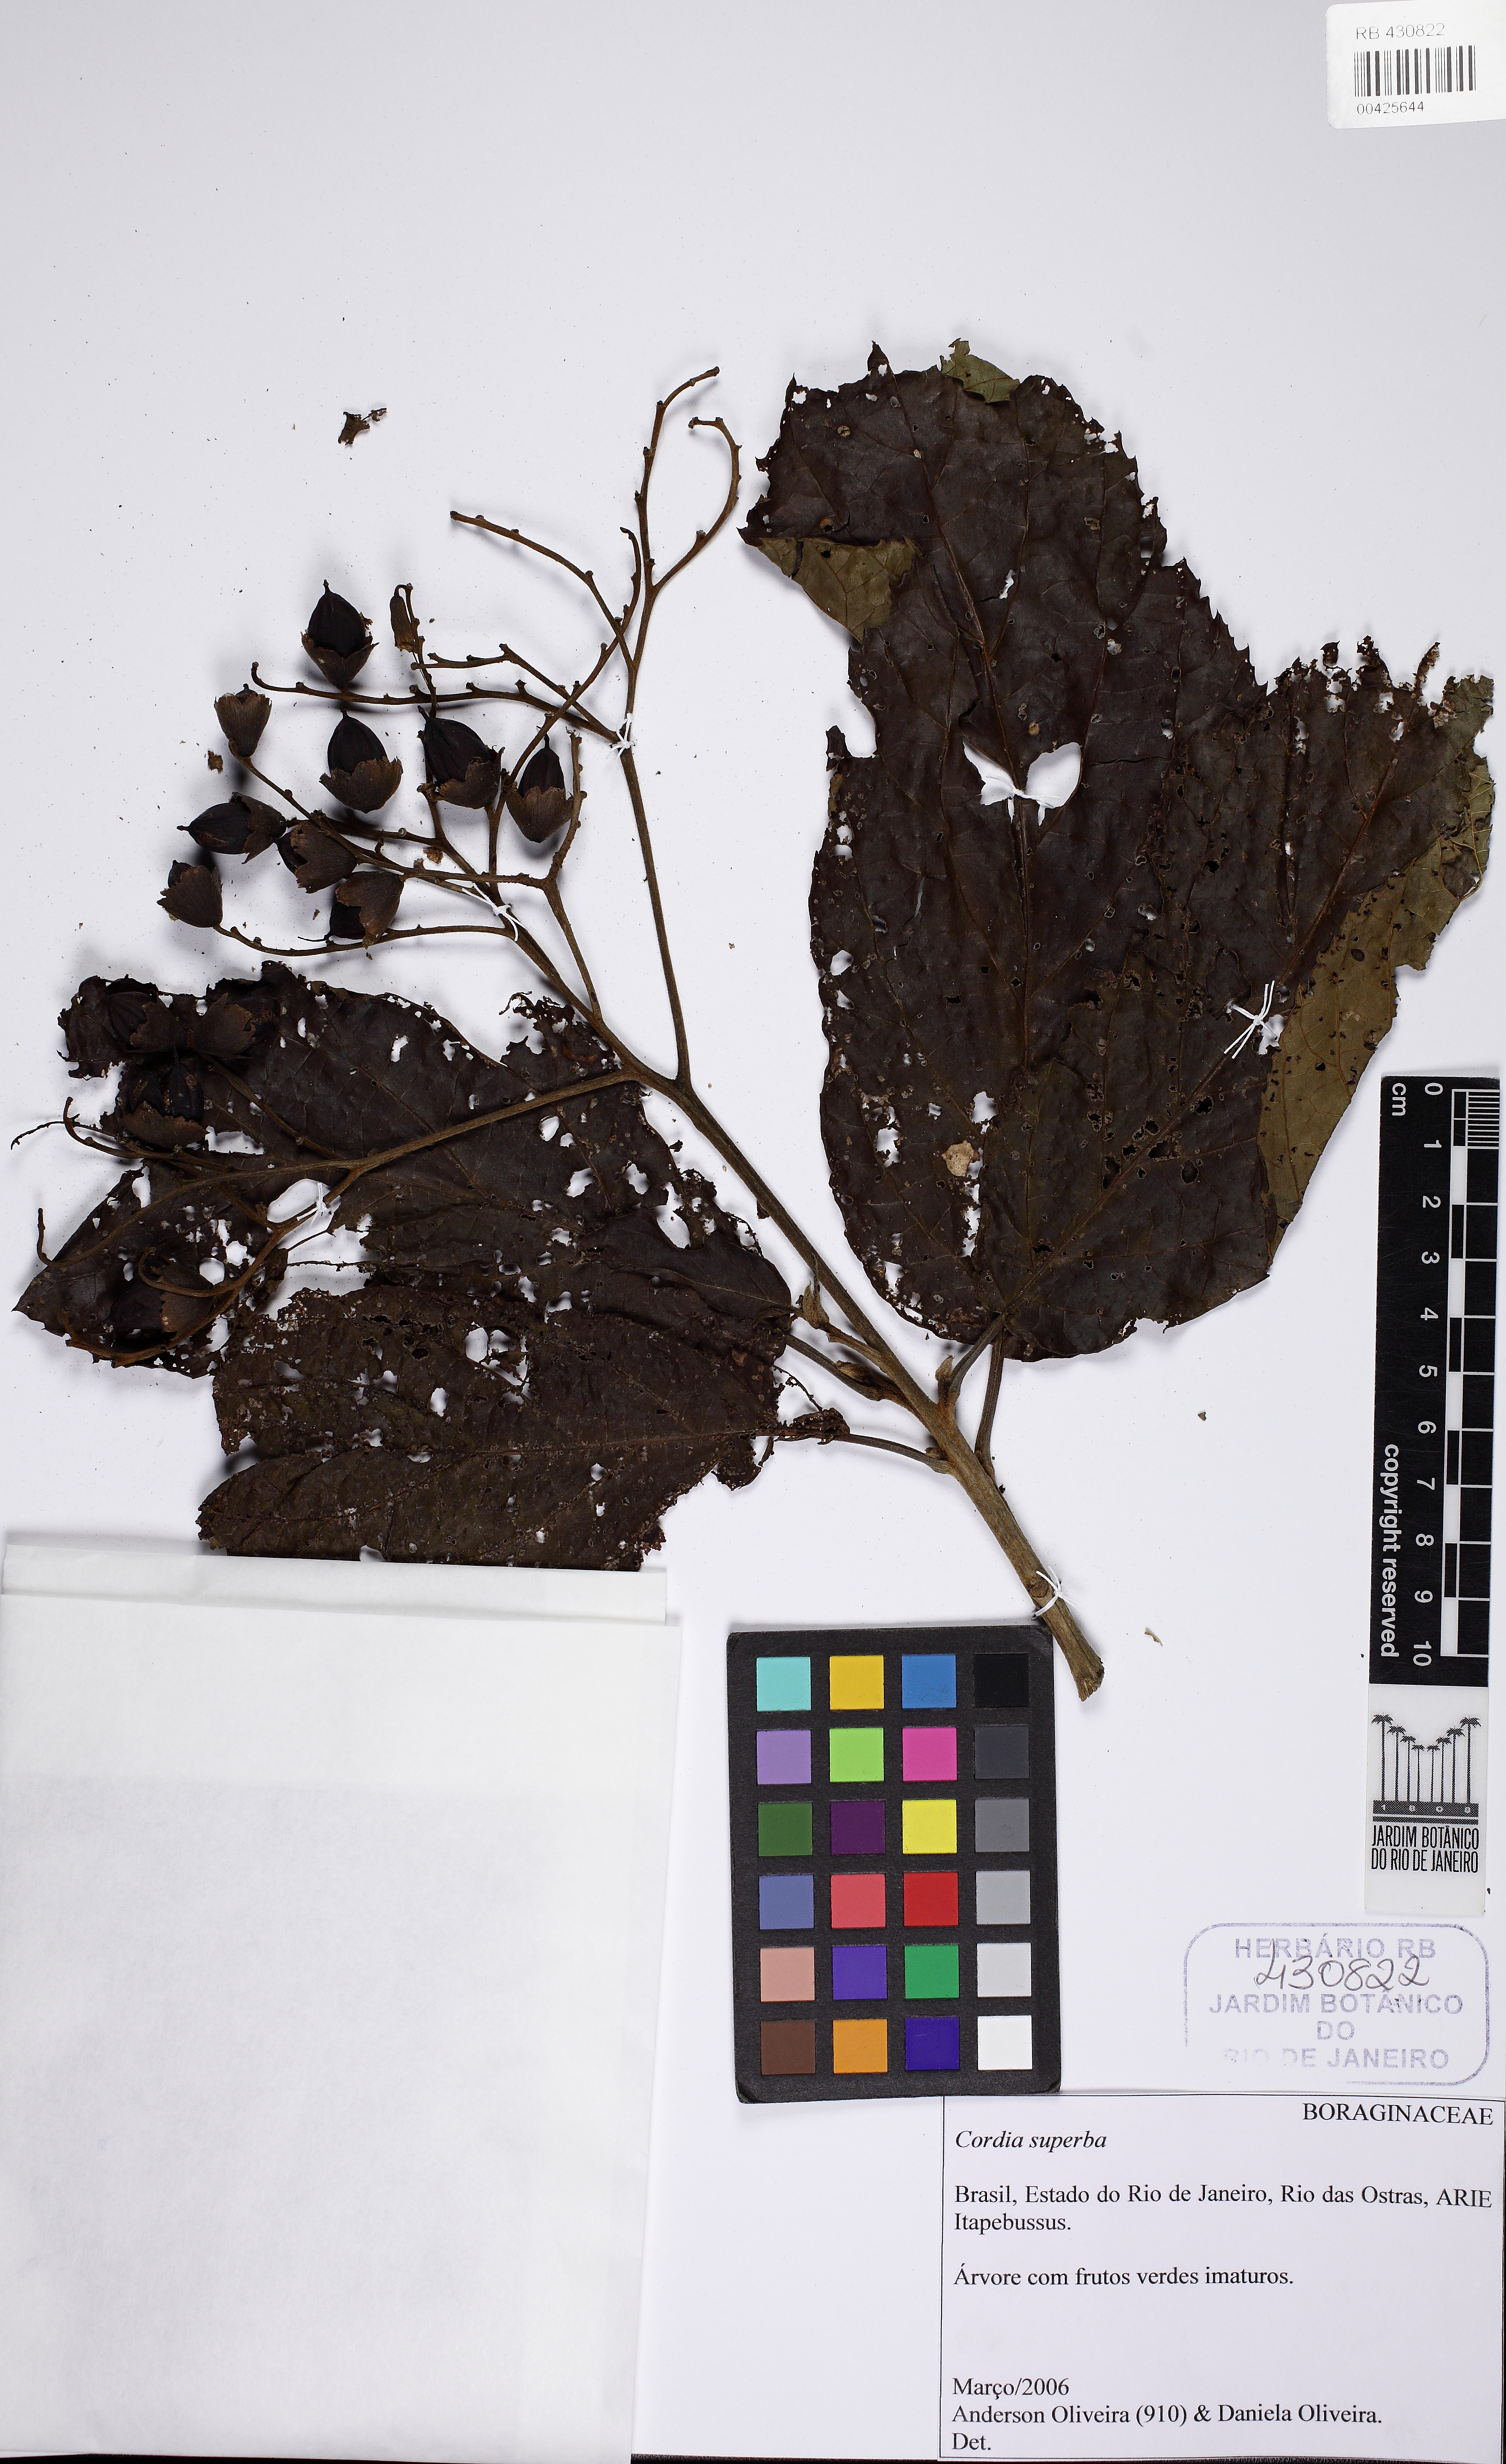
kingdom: Plantae
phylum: Tracheophyta
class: Magnoliopsida
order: Boraginales
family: Cordiaceae
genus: Cordia
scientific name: Cordia superba
